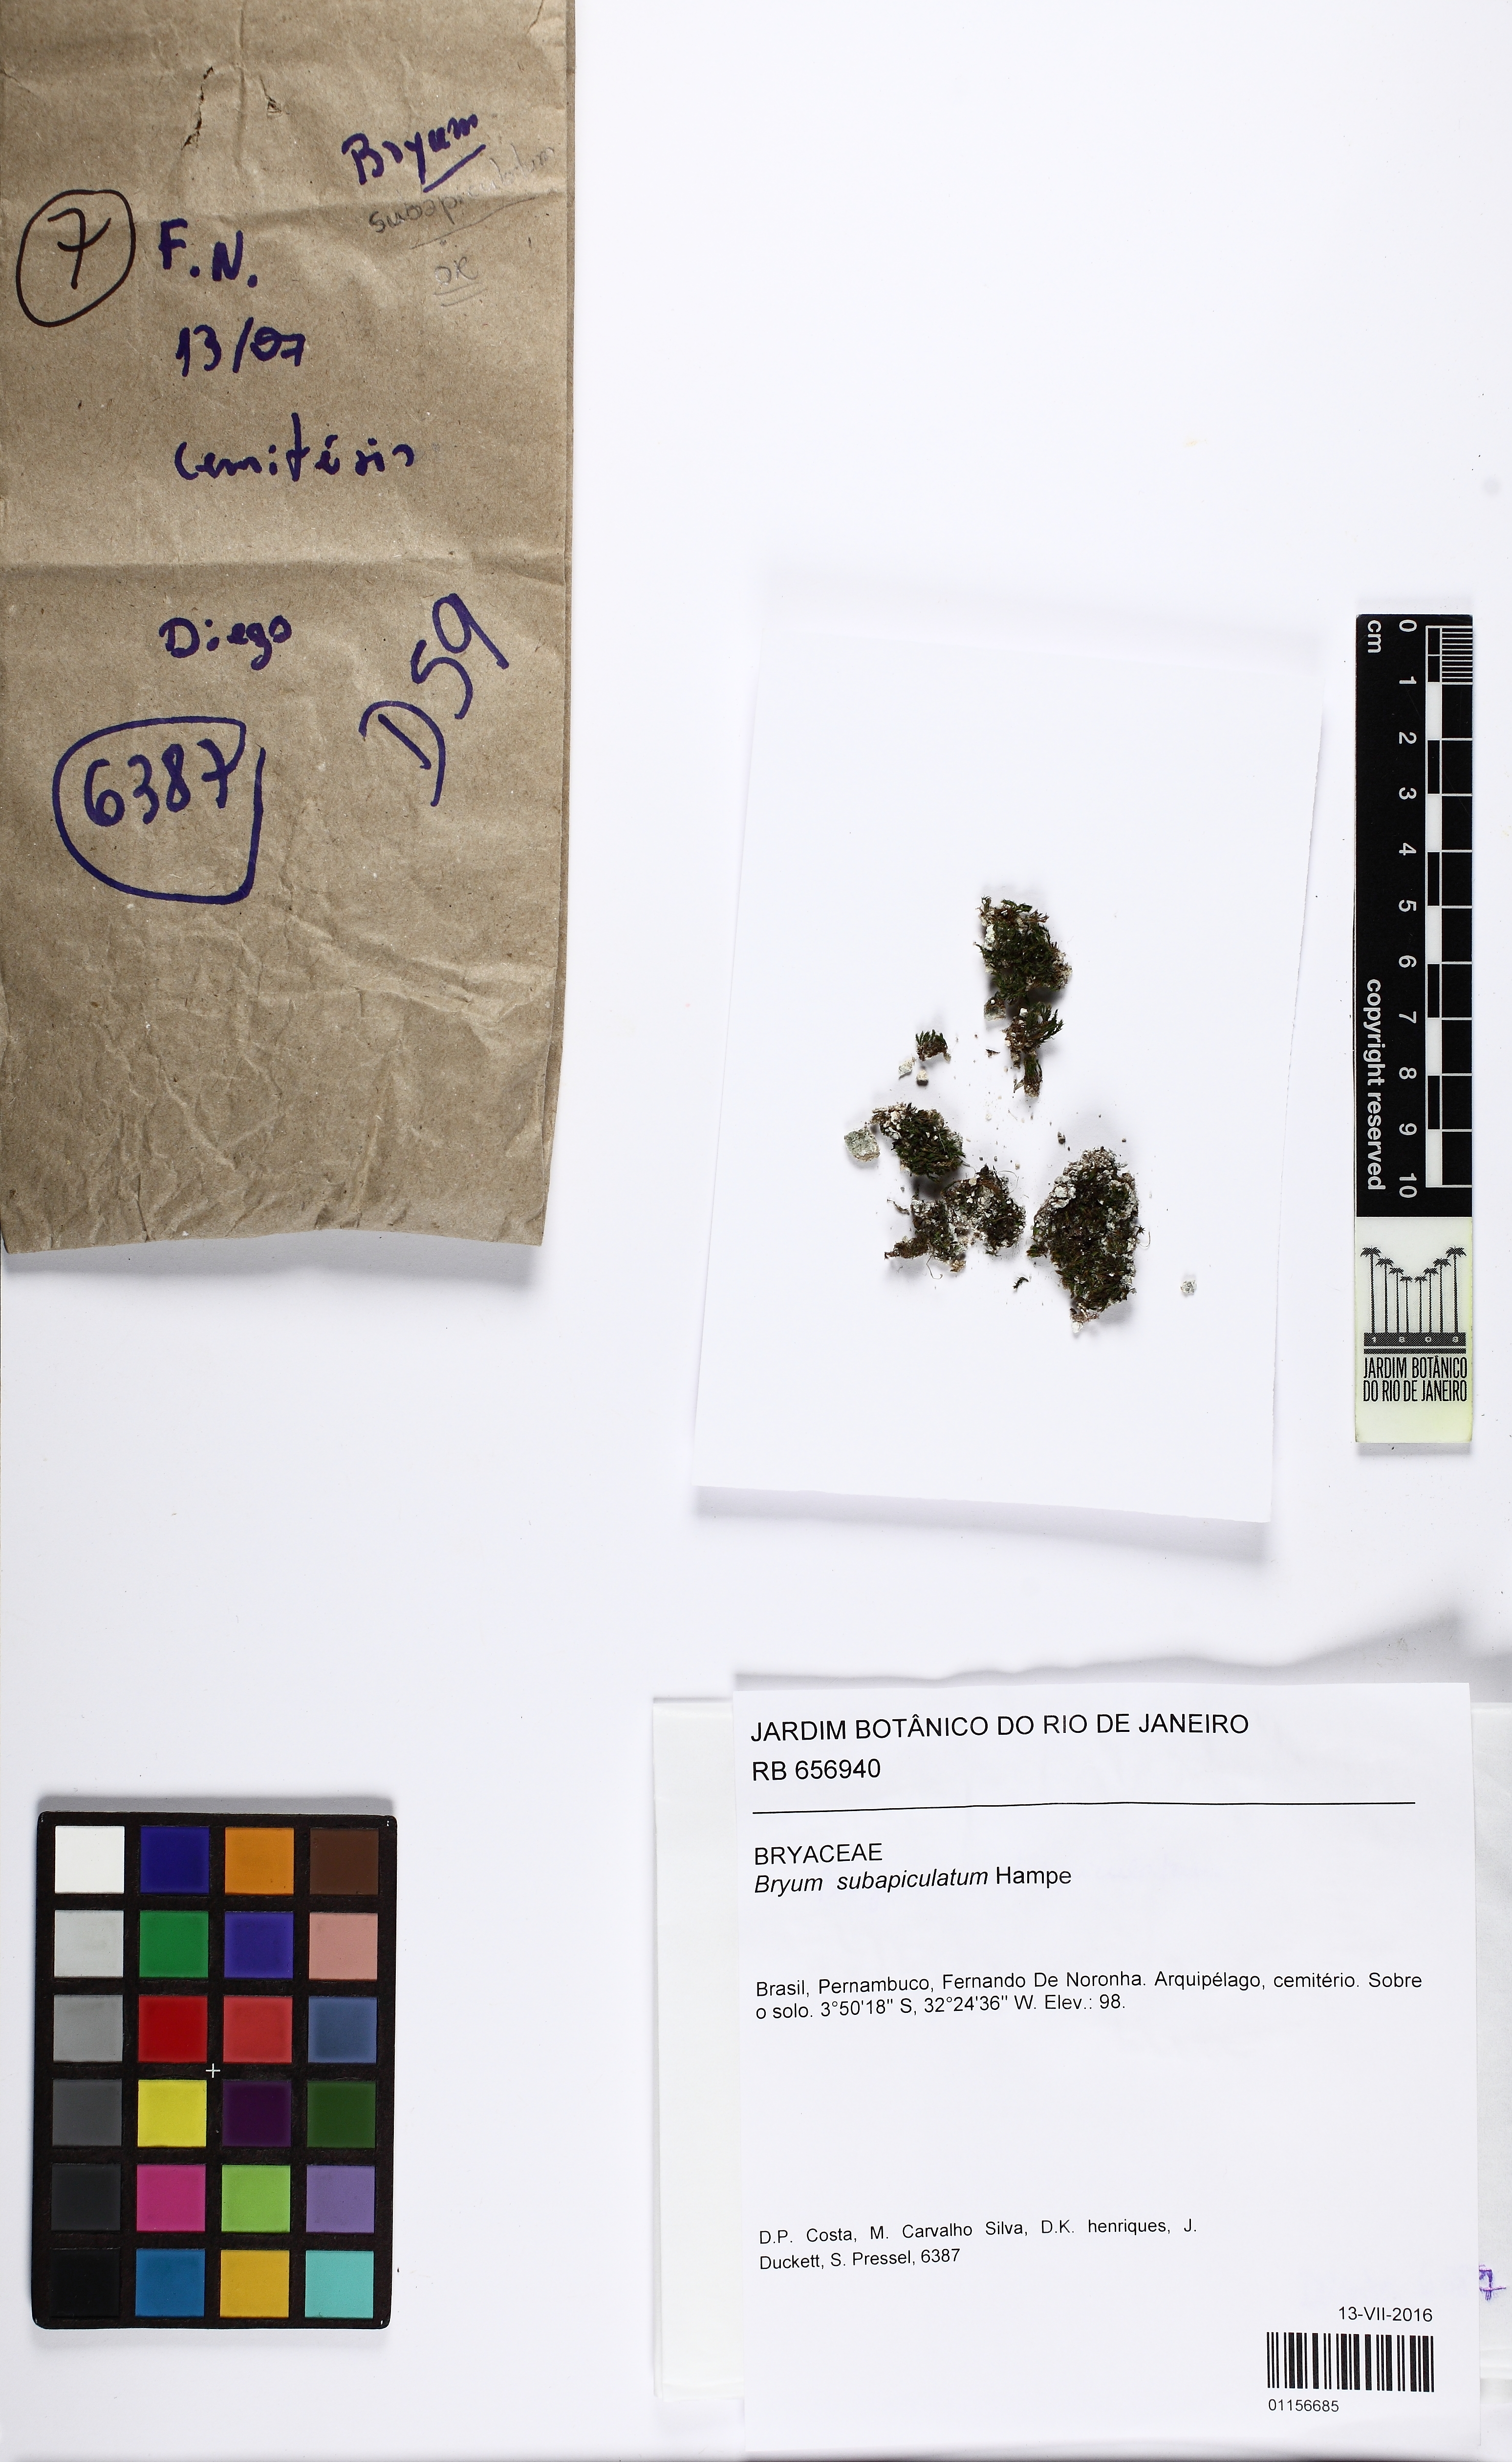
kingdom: Plantae
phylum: Bryophyta
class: Bryopsida
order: Bryales
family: Bryaceae
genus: Gemmabryum
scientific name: Gemmabryum subapiculatum
